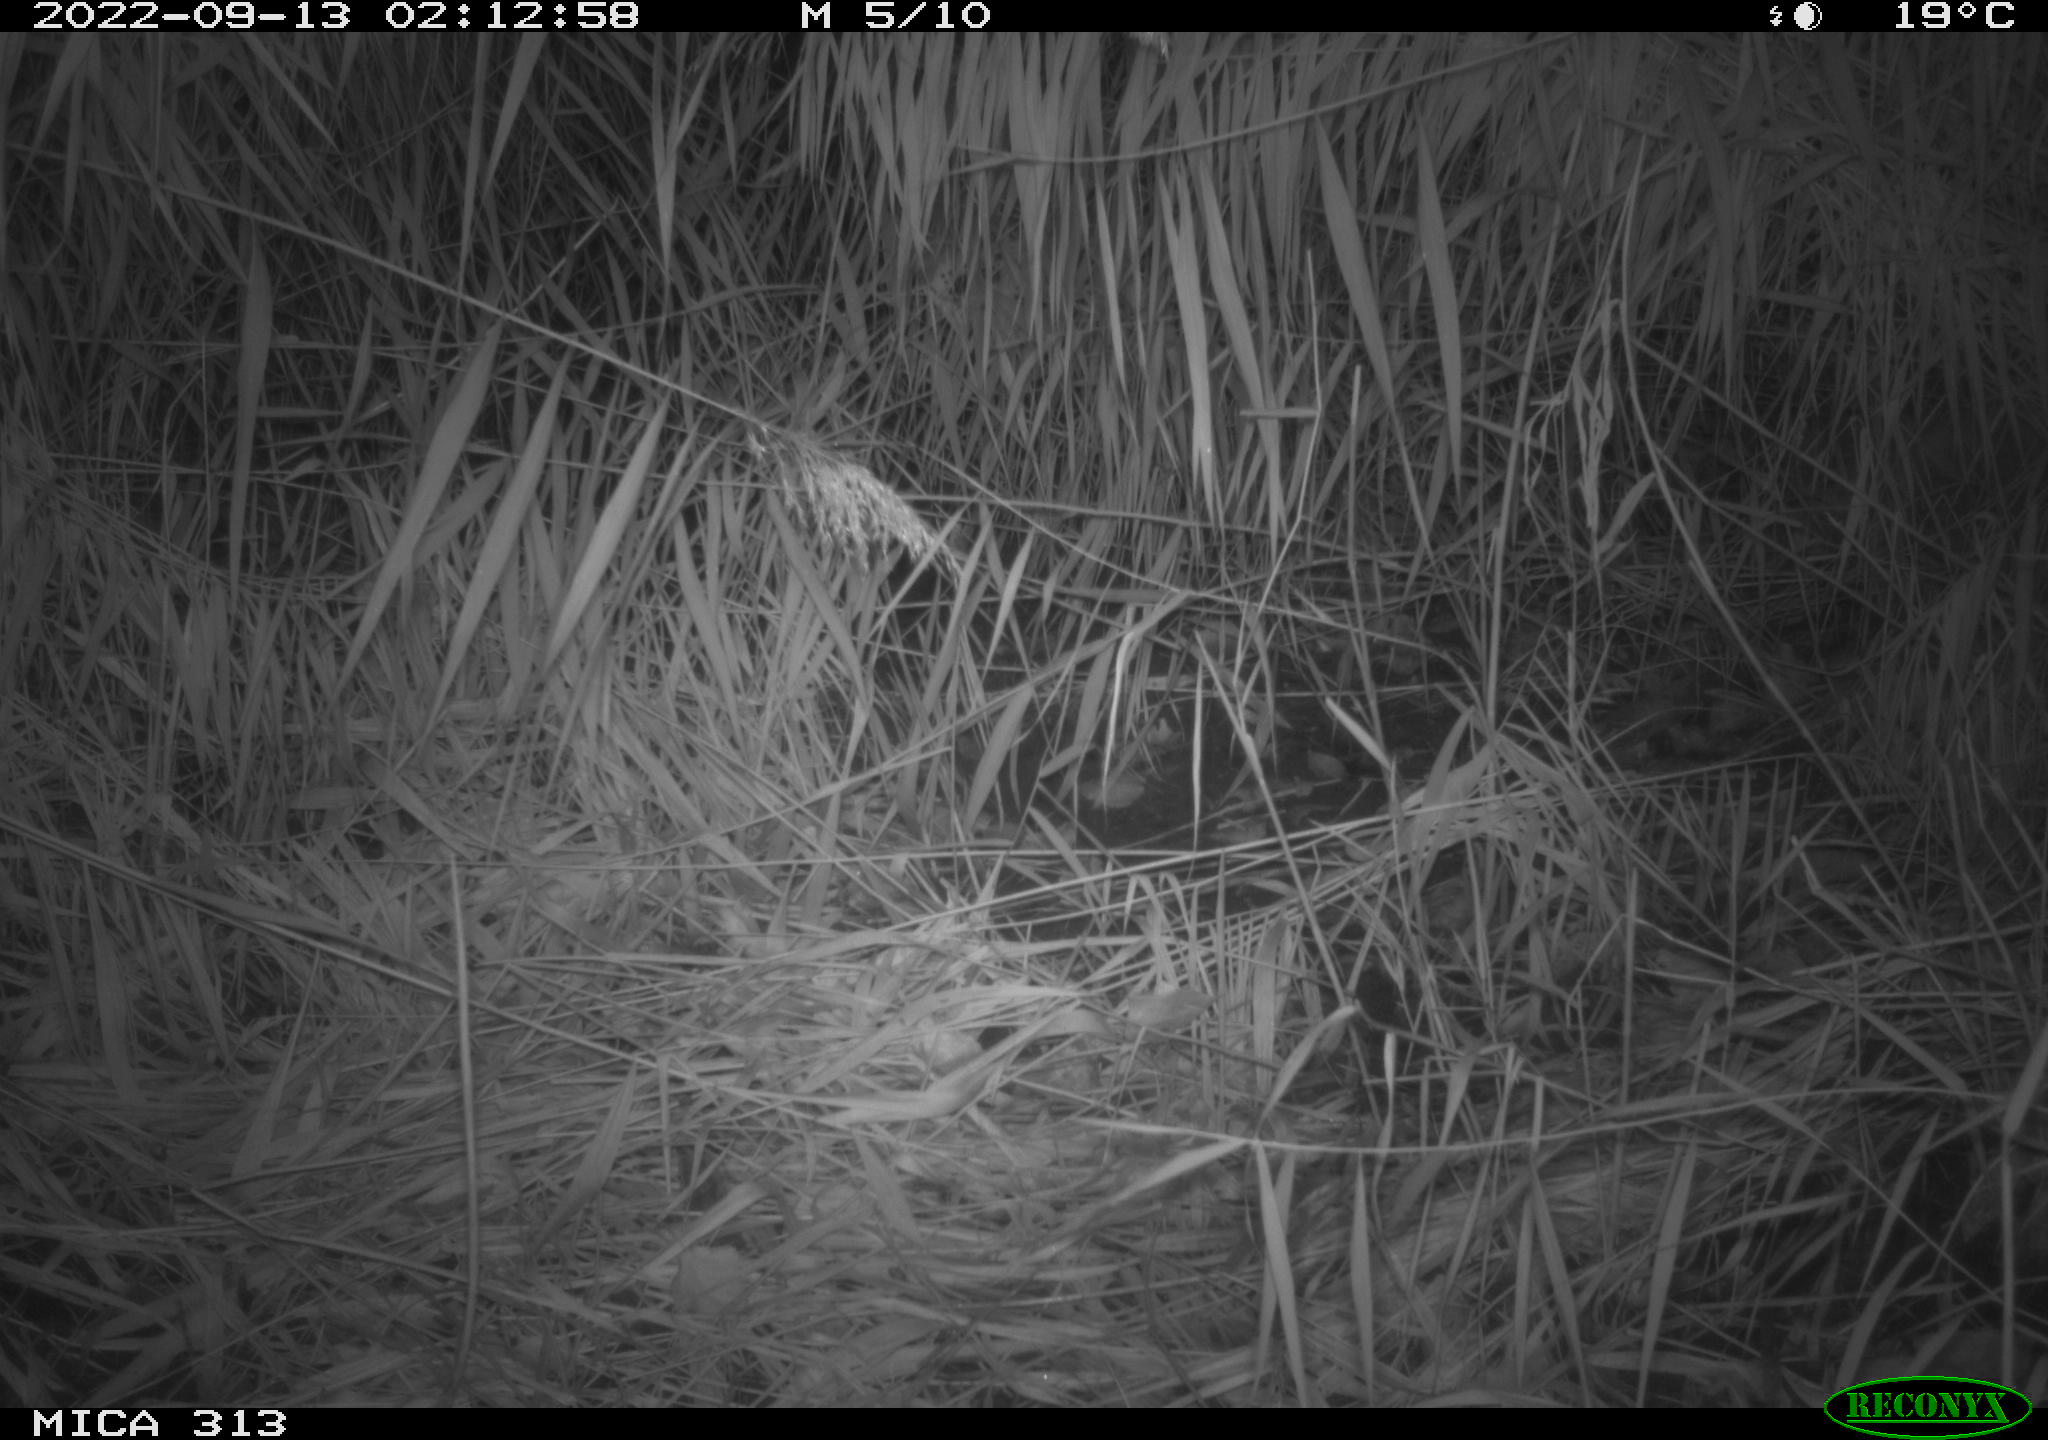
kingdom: Animalia
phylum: Chordata
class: Mammalia
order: Rodentia
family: Muridae
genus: Rattus
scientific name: Rattus norvegicus
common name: Brown rat
